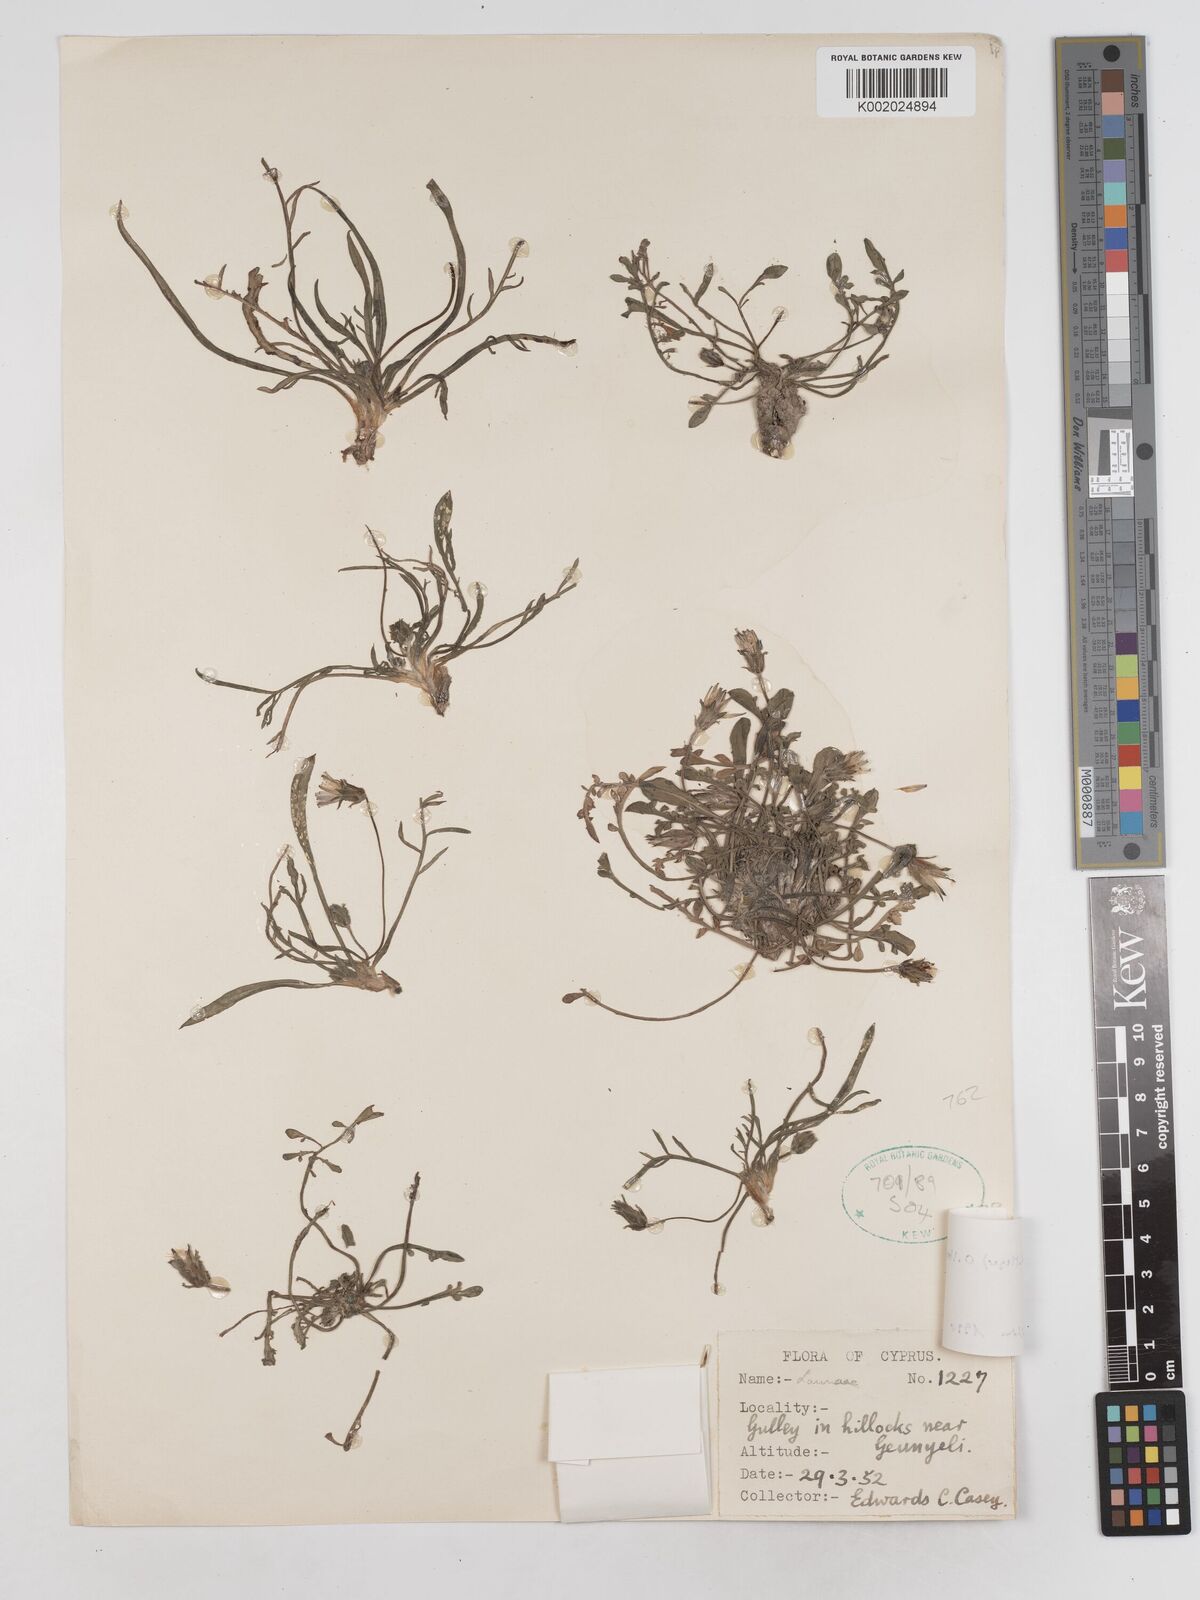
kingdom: Plantae
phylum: Tracheophyta
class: Magnoliopsida
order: Asterales
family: Asteraceae
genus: Scorzonera
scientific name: Scorzonera alpigena
